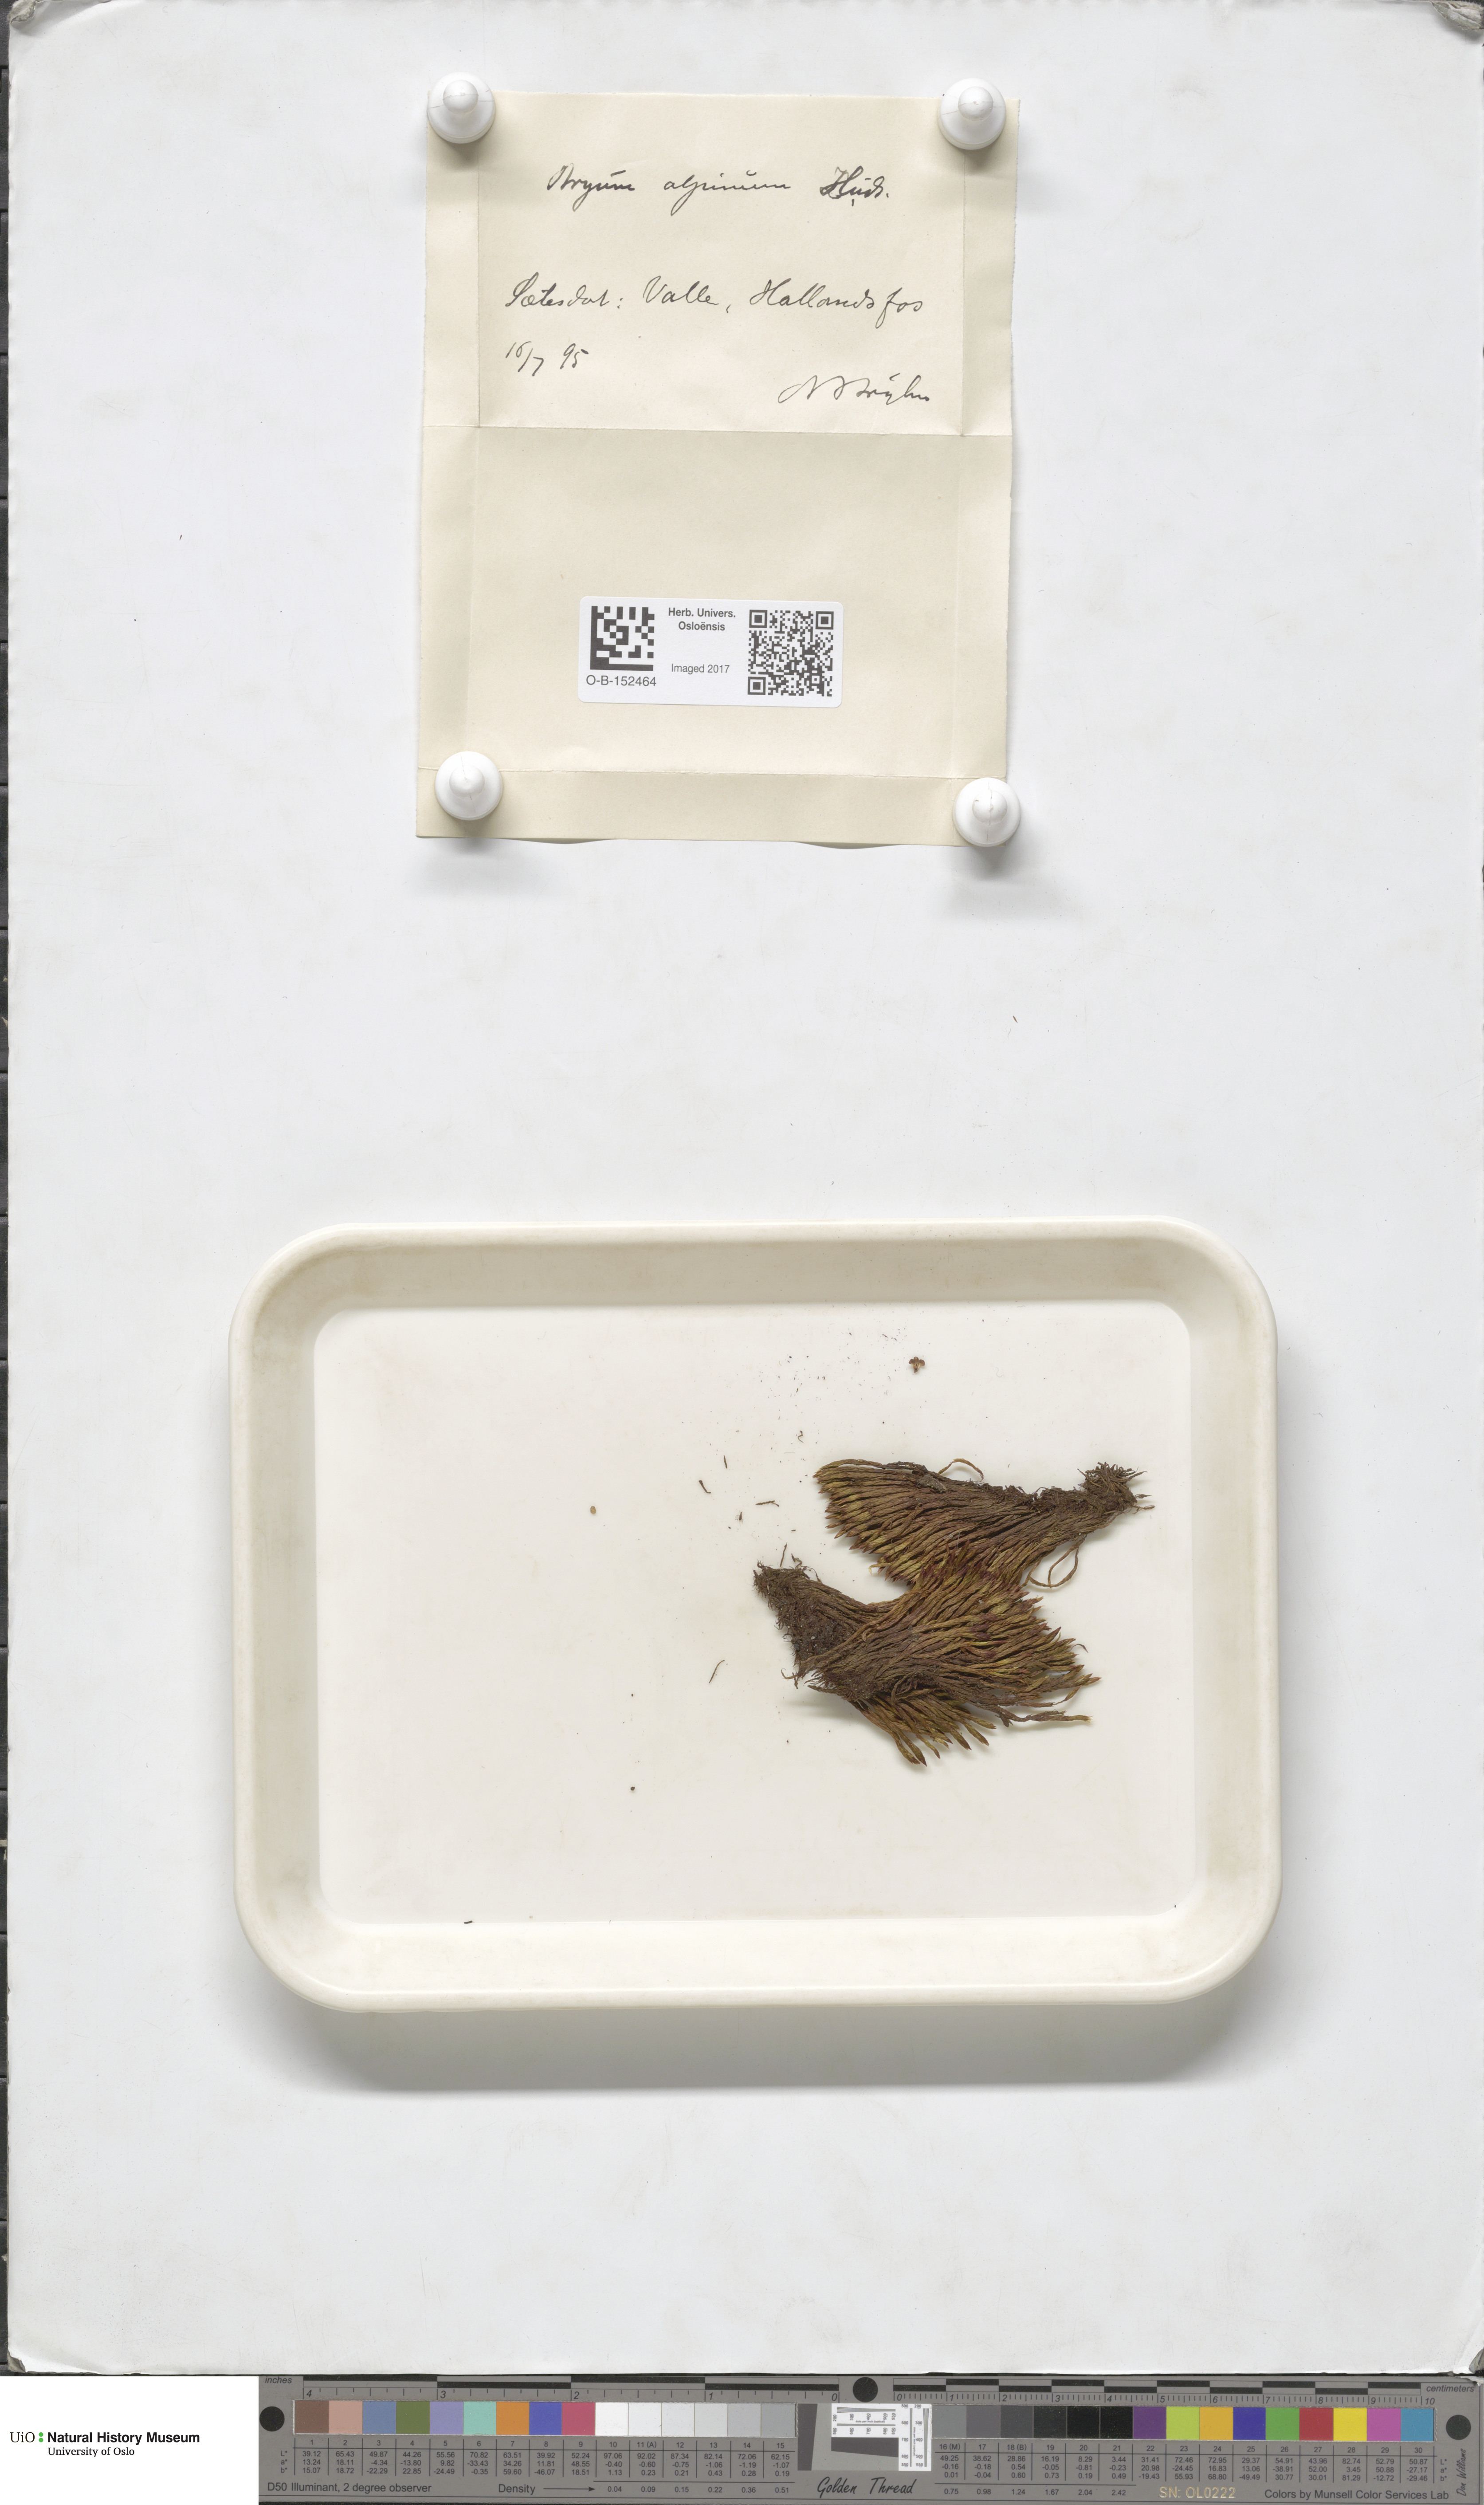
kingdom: Plantae
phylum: Bryophyta
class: Bryopsida
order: Bryales
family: Bryaceae
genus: Imbribryum
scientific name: Imbribryum alpinum
